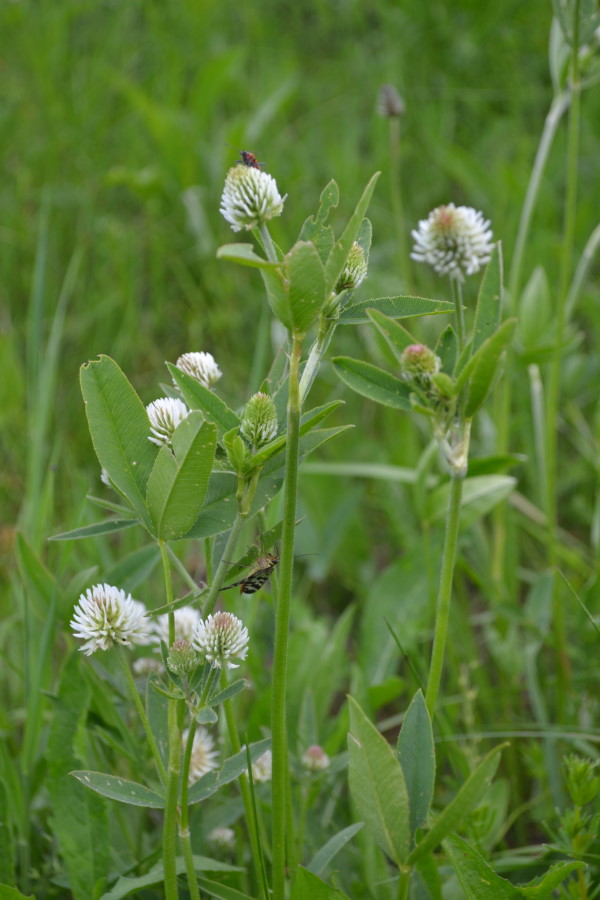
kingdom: Plantae
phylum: Tracheophyta
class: Magnoliopsida
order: Fabales
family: Fabaceae
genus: Trifolium
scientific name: Trifolium montanum
